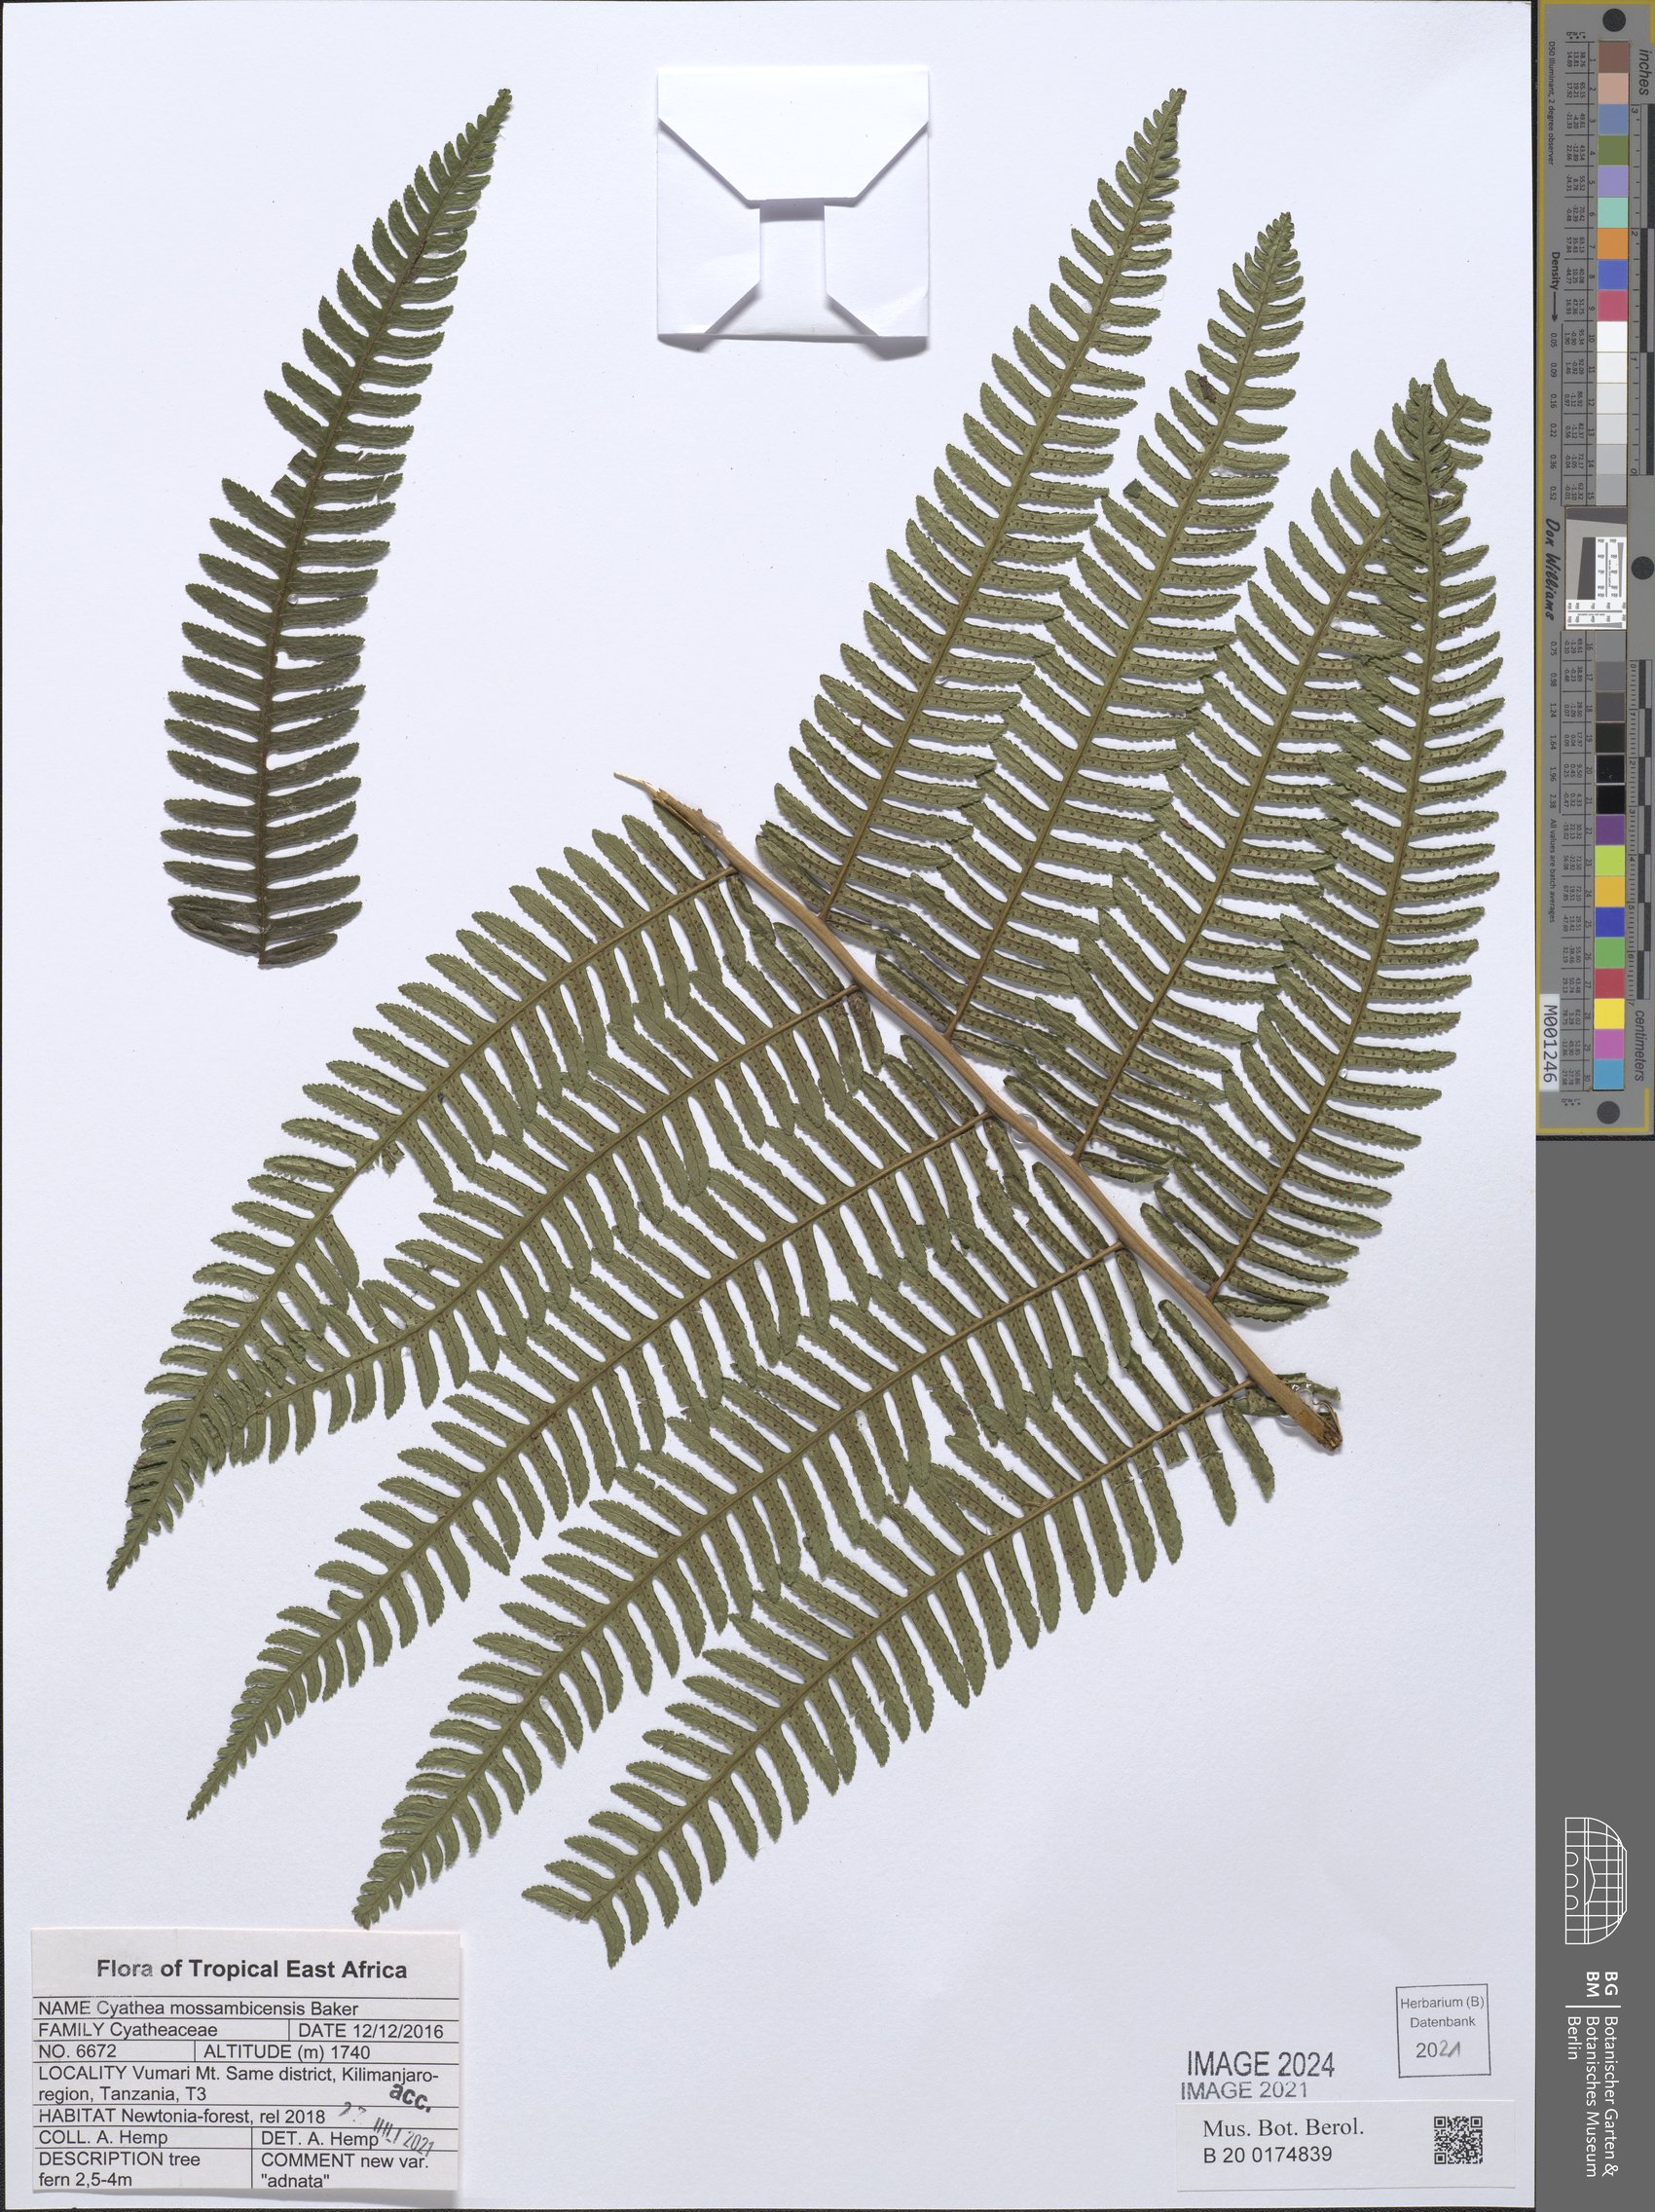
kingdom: Plantae
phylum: Tracheophyta
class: Polypodiopsida
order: Cyatheales
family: Cyatheaceae
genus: Alsophila
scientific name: Alsophila mossambicensis
